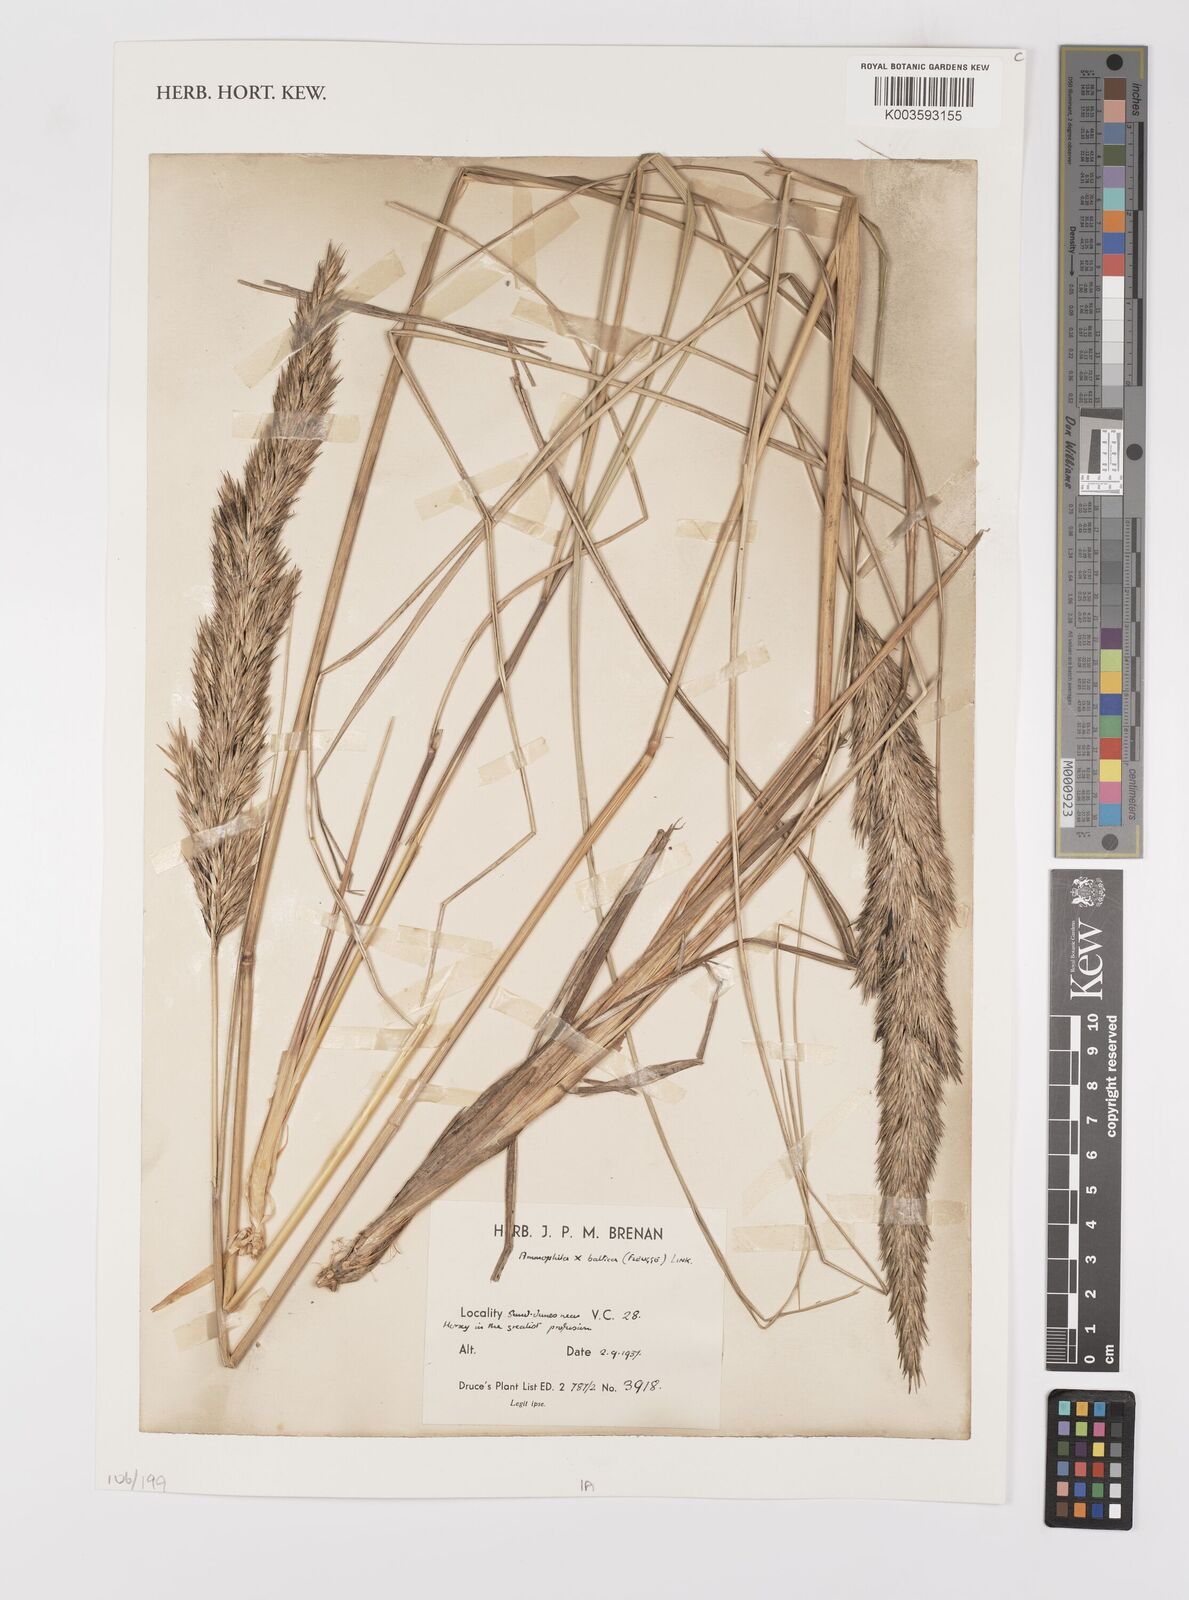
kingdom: Plantae
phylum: Tracheophyta
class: Liliopsida
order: Poales
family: Poaceae
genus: Calamagrostis
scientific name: Calamagrostis baltica
